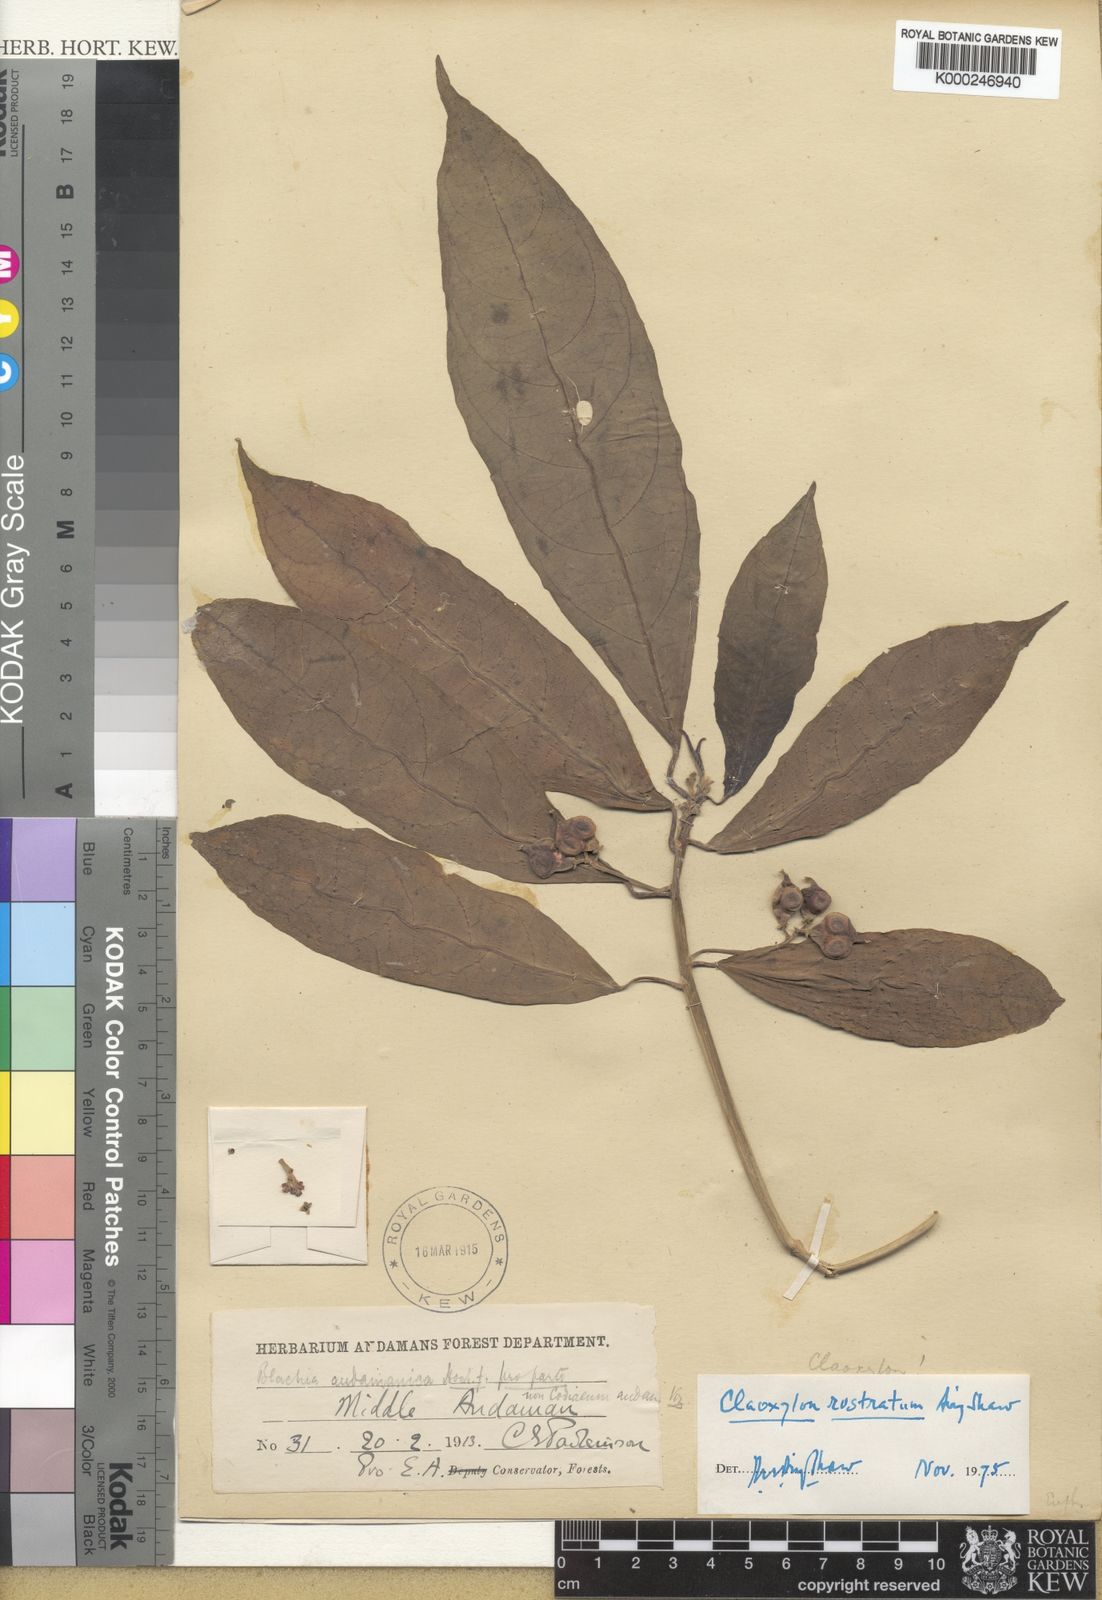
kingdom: Plantae
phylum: Tracheophyta
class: Magnoliopsida
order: Malpighiales
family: Euphorbiaceae
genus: Claoxylon
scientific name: Claoxylon rostratum
